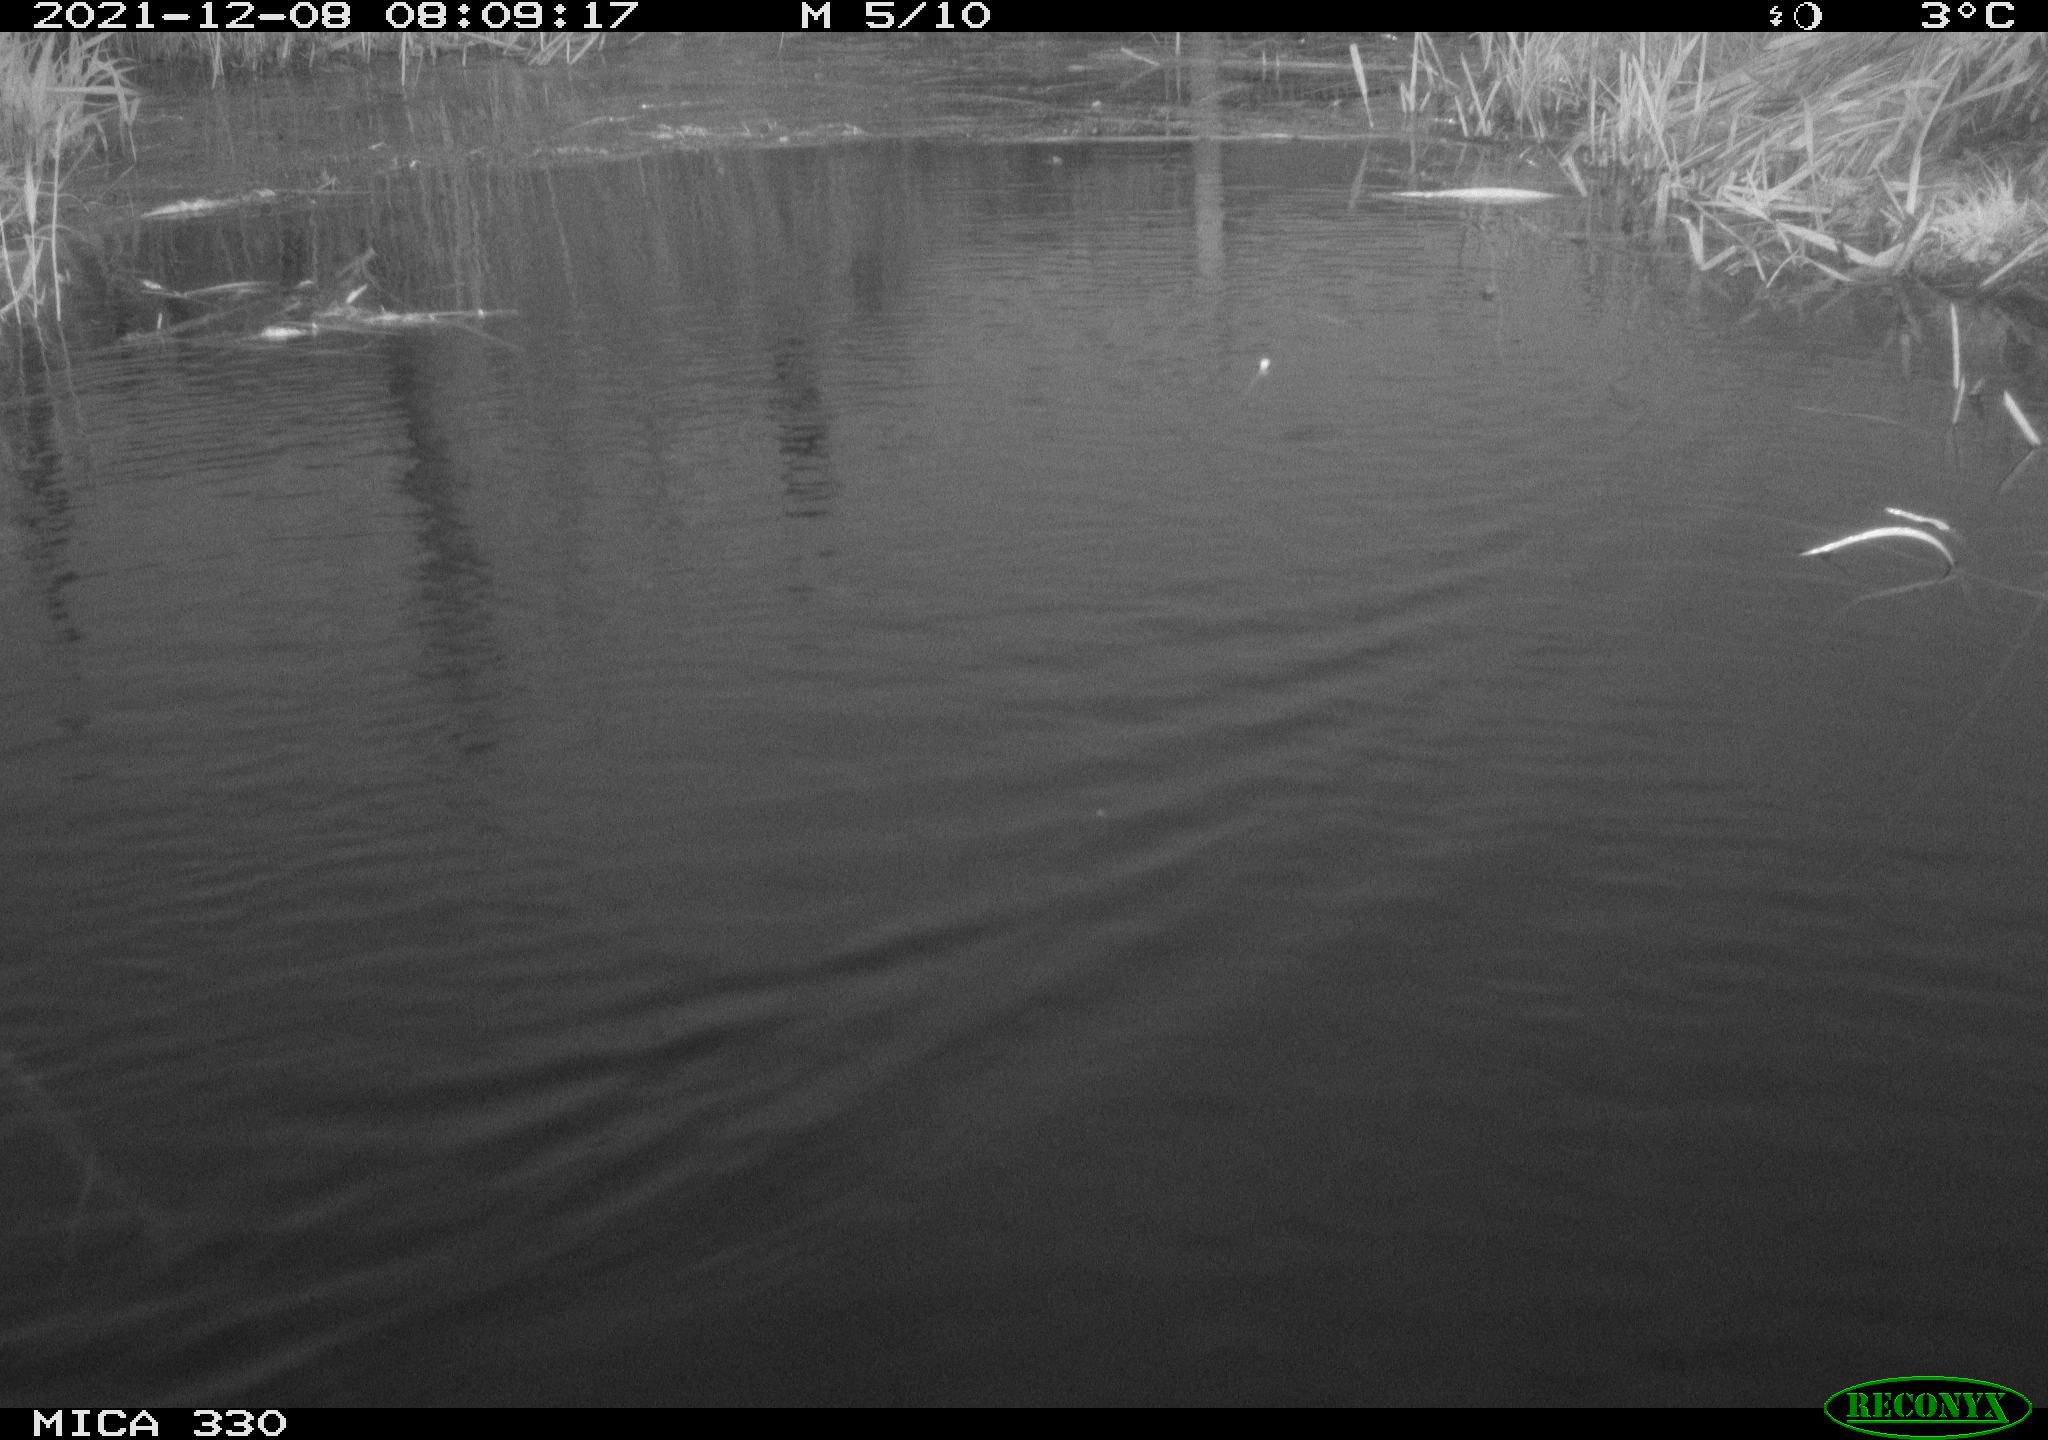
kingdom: Animalia
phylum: Chordata
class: Aves
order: Gruiformes
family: Rallidae
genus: Gallinula
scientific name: Gallinula chloropus
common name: Common moorhen
